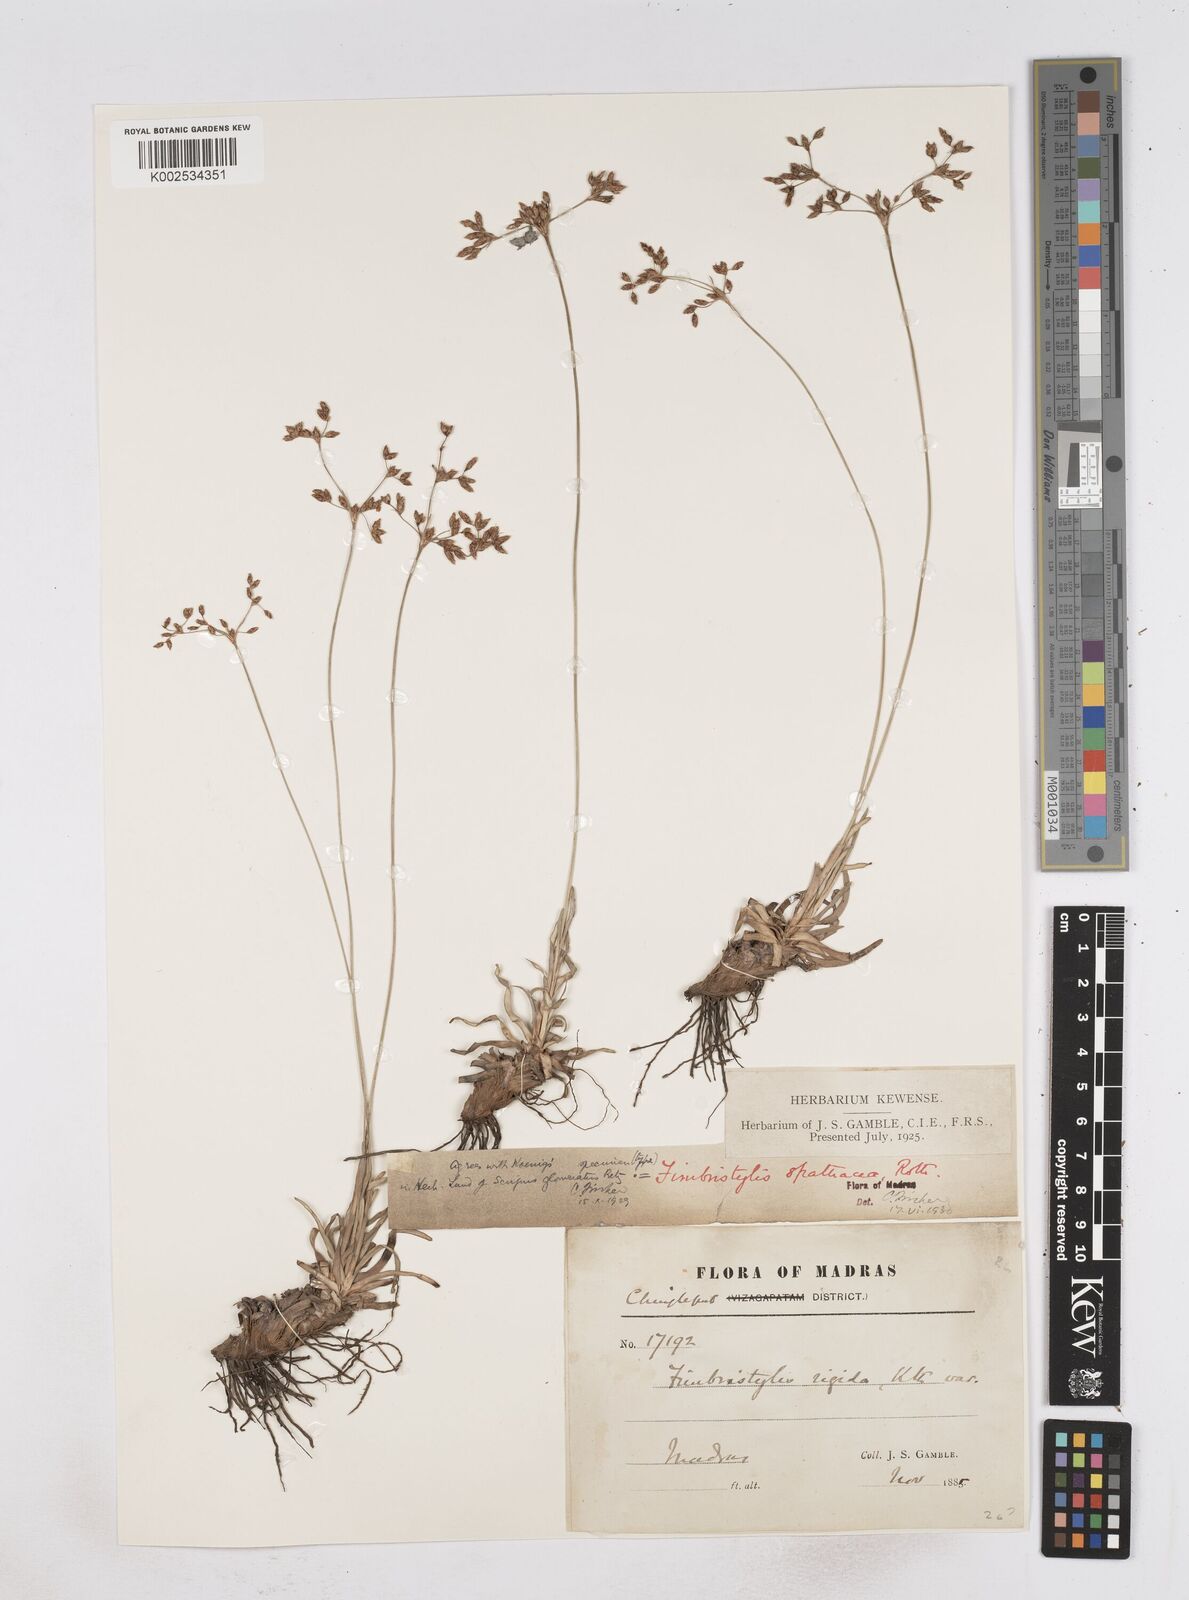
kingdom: Plantae
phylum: Tracheophyta
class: Liliopsida
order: Poales
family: Cyperaceae
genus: Fimbristylis
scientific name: Fimbristylis cymosa
